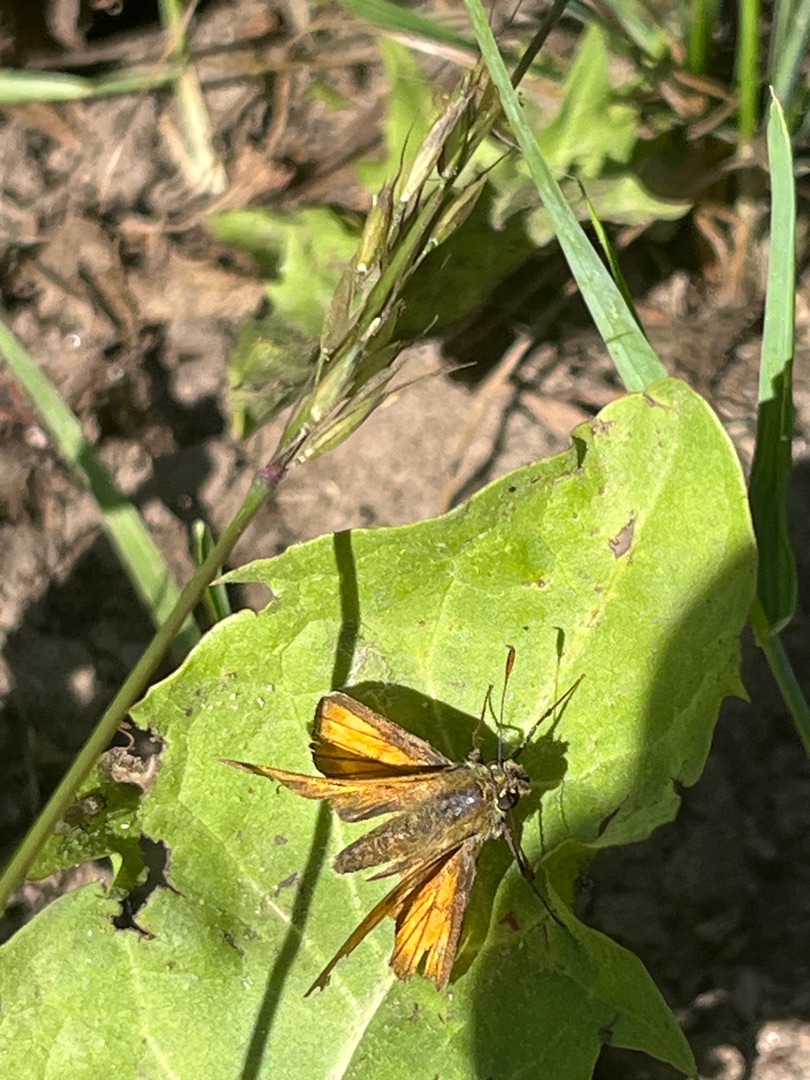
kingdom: Animalia
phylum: Arthropoda
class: Insecta
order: Lepidoptera
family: Hesperiidae
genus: Ochlodes
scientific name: Ochlodes venata
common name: Stor bredpande
